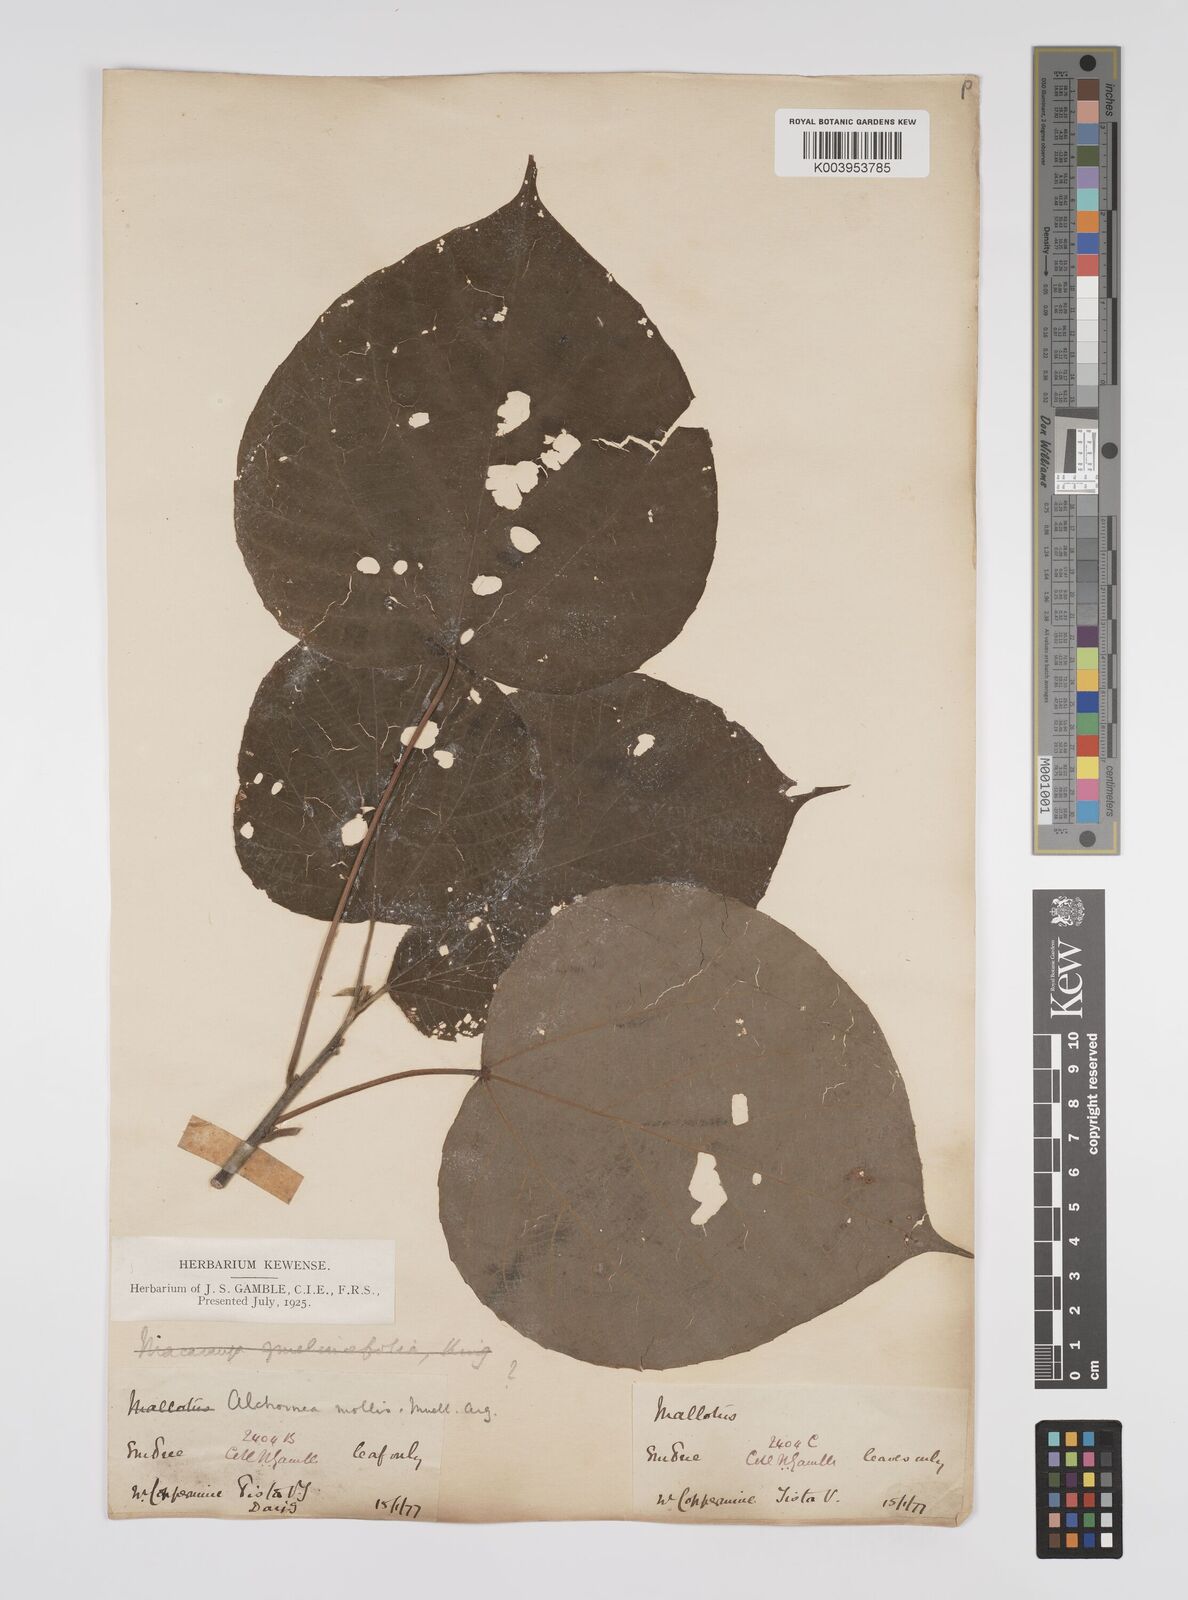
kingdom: Plantae
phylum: Tracheophyta
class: Magnoliopsida
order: Malpighiales
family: Euphorbiaceae
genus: Alchornea
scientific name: Alchornea mollis
